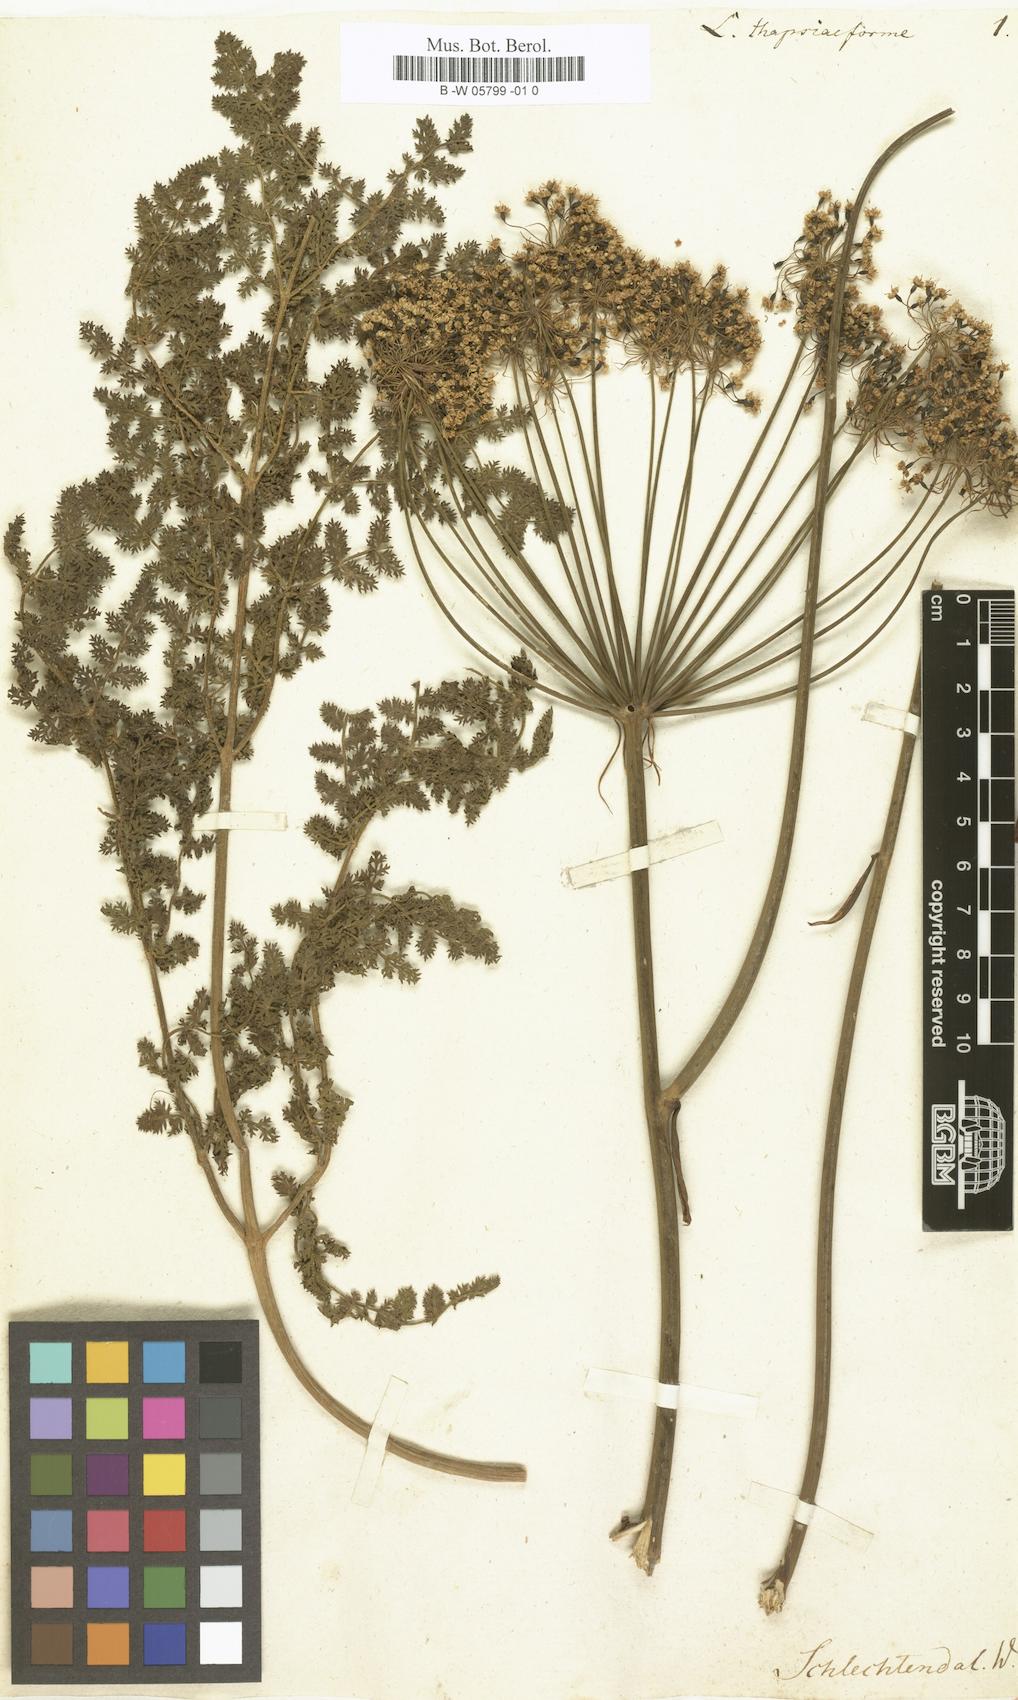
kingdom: Plantae
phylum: Tracheophyta
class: Magnoliopsida
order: Apiales
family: Apiaceae
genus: Thapsia
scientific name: Thapsia tenuifolia
